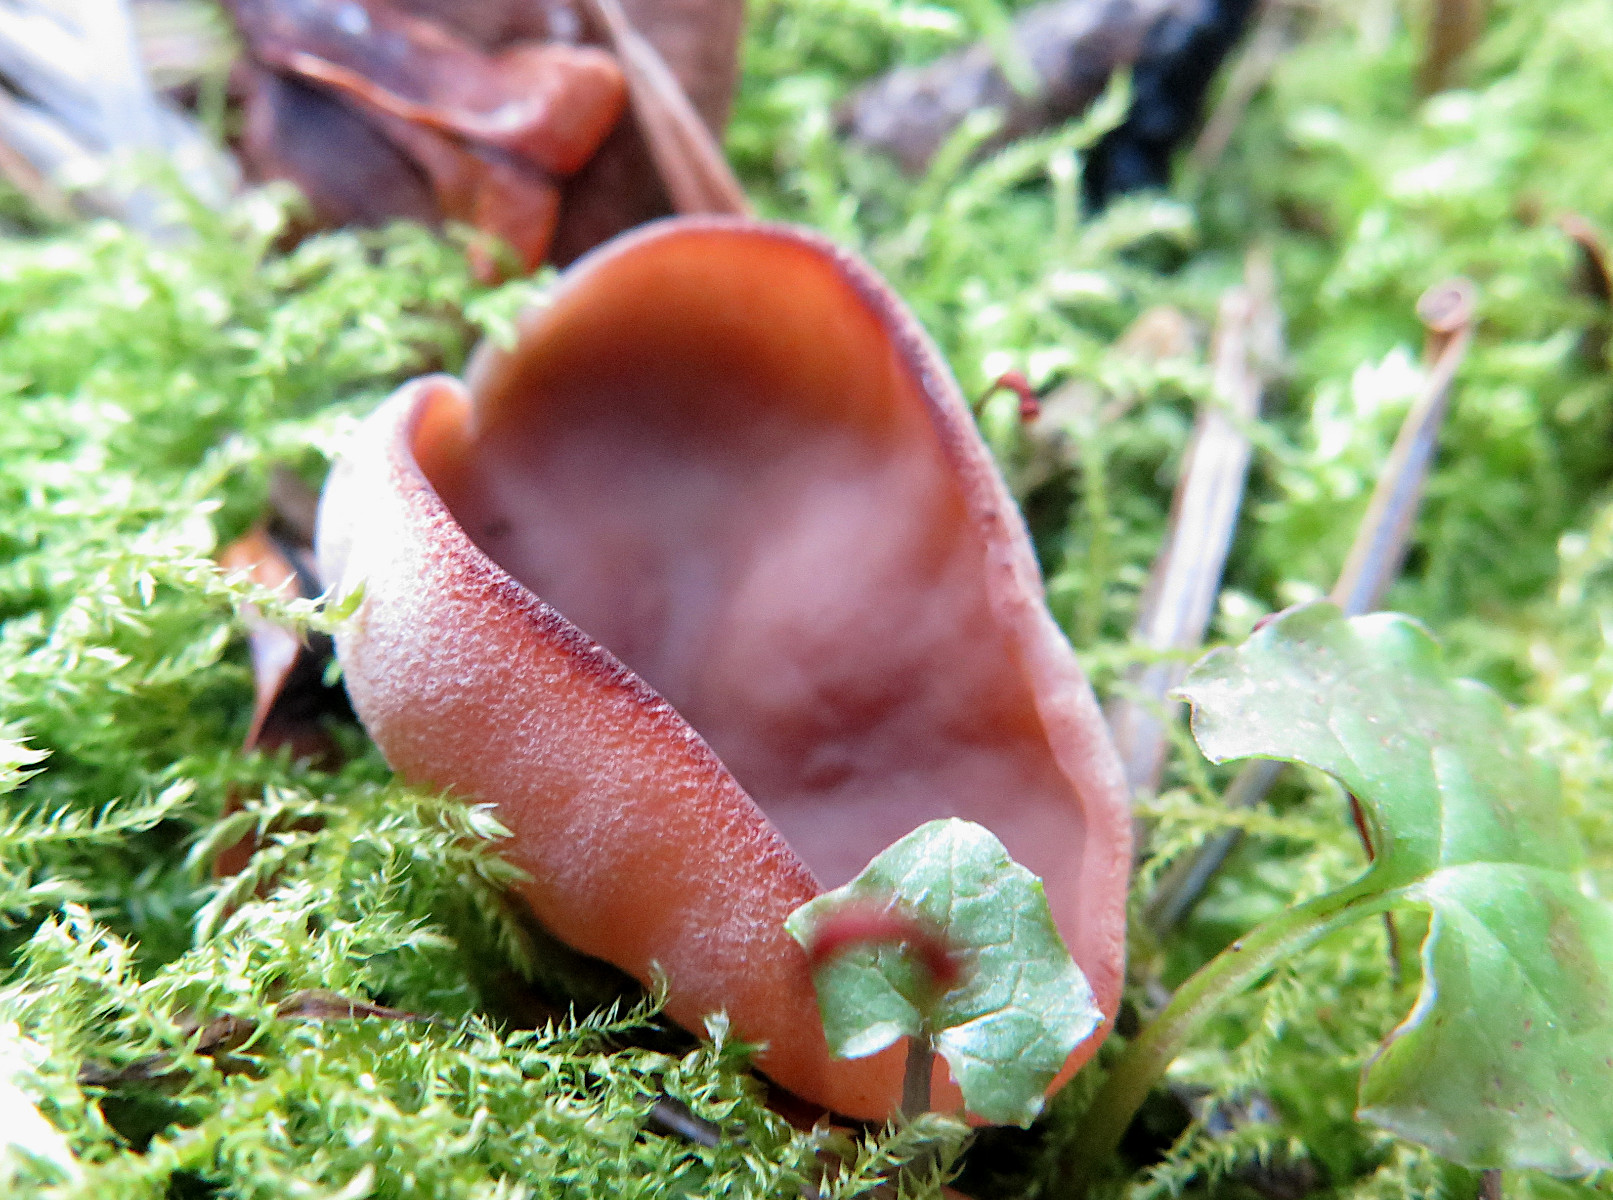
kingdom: Fungi
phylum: Ascomycota
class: Pezizomycetes
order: Pezizales
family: Discinaceae
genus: Discina
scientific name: Discina ancilis
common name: udbredt stenmorkel
